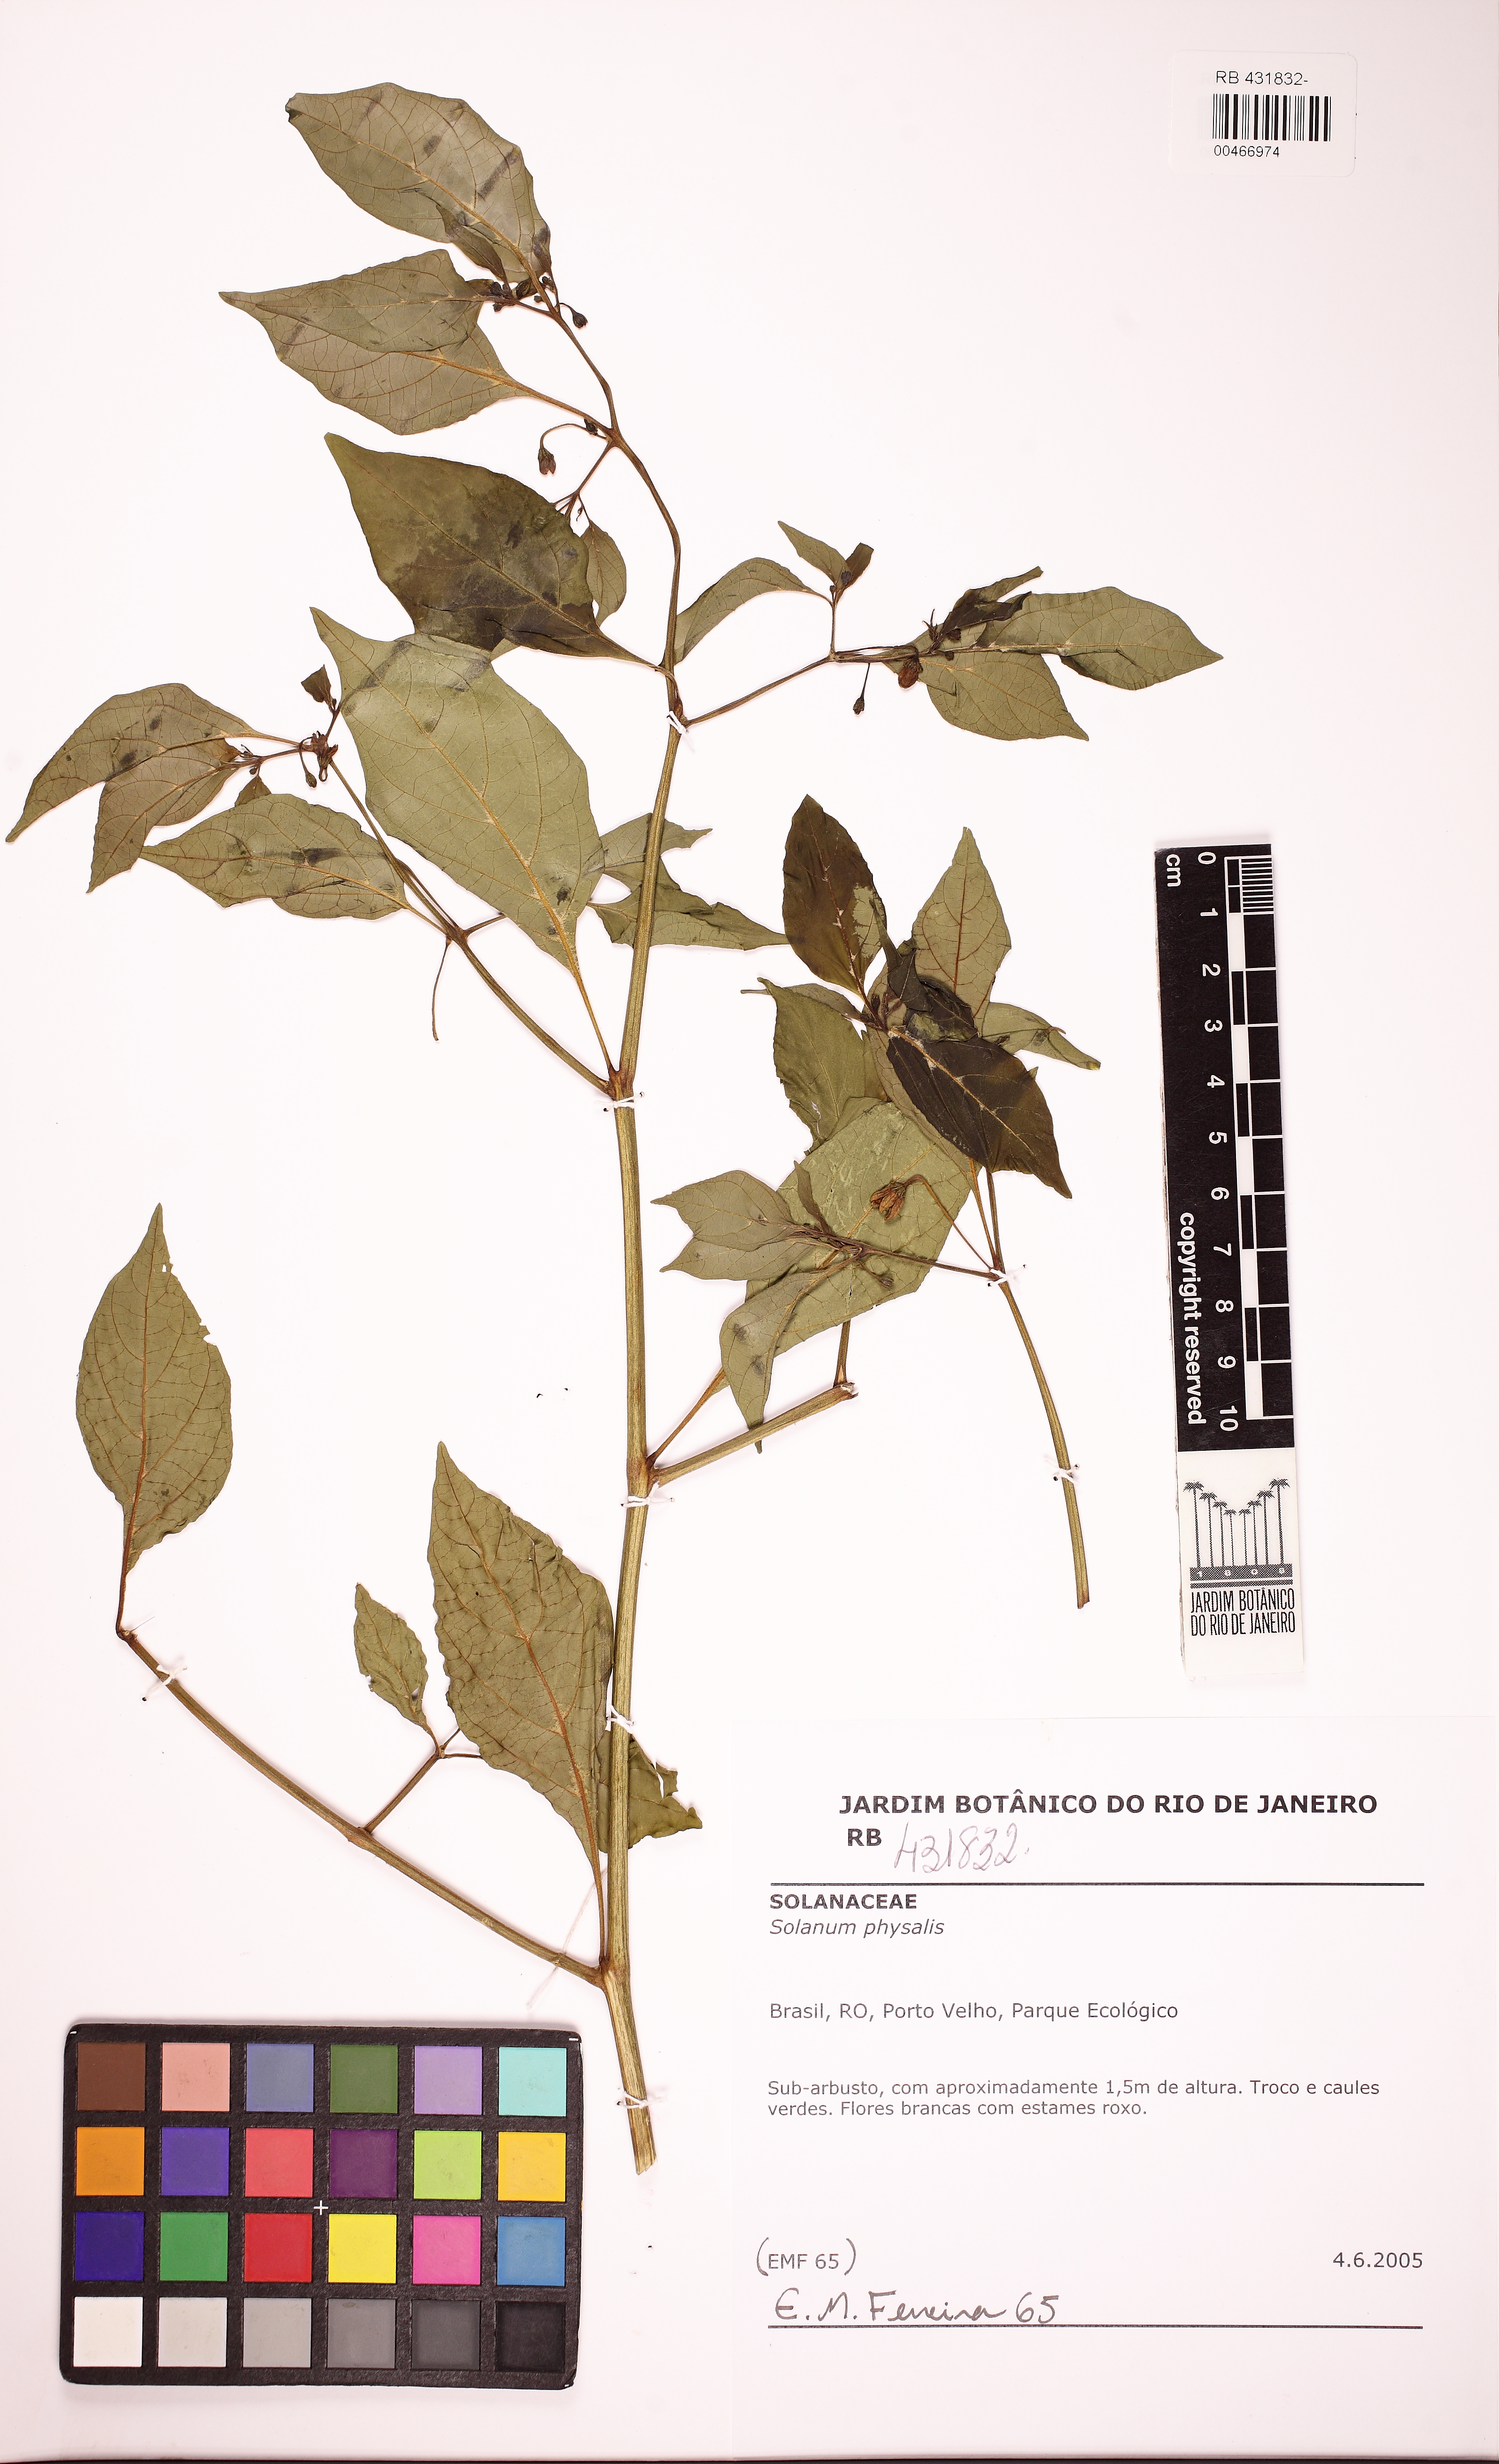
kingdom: Plantae
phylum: Tracheophyta
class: Magnoliopsida
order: Solanales
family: Solanaceae
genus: Capsicum
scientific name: Capsicum frutescens
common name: Bird pepper
